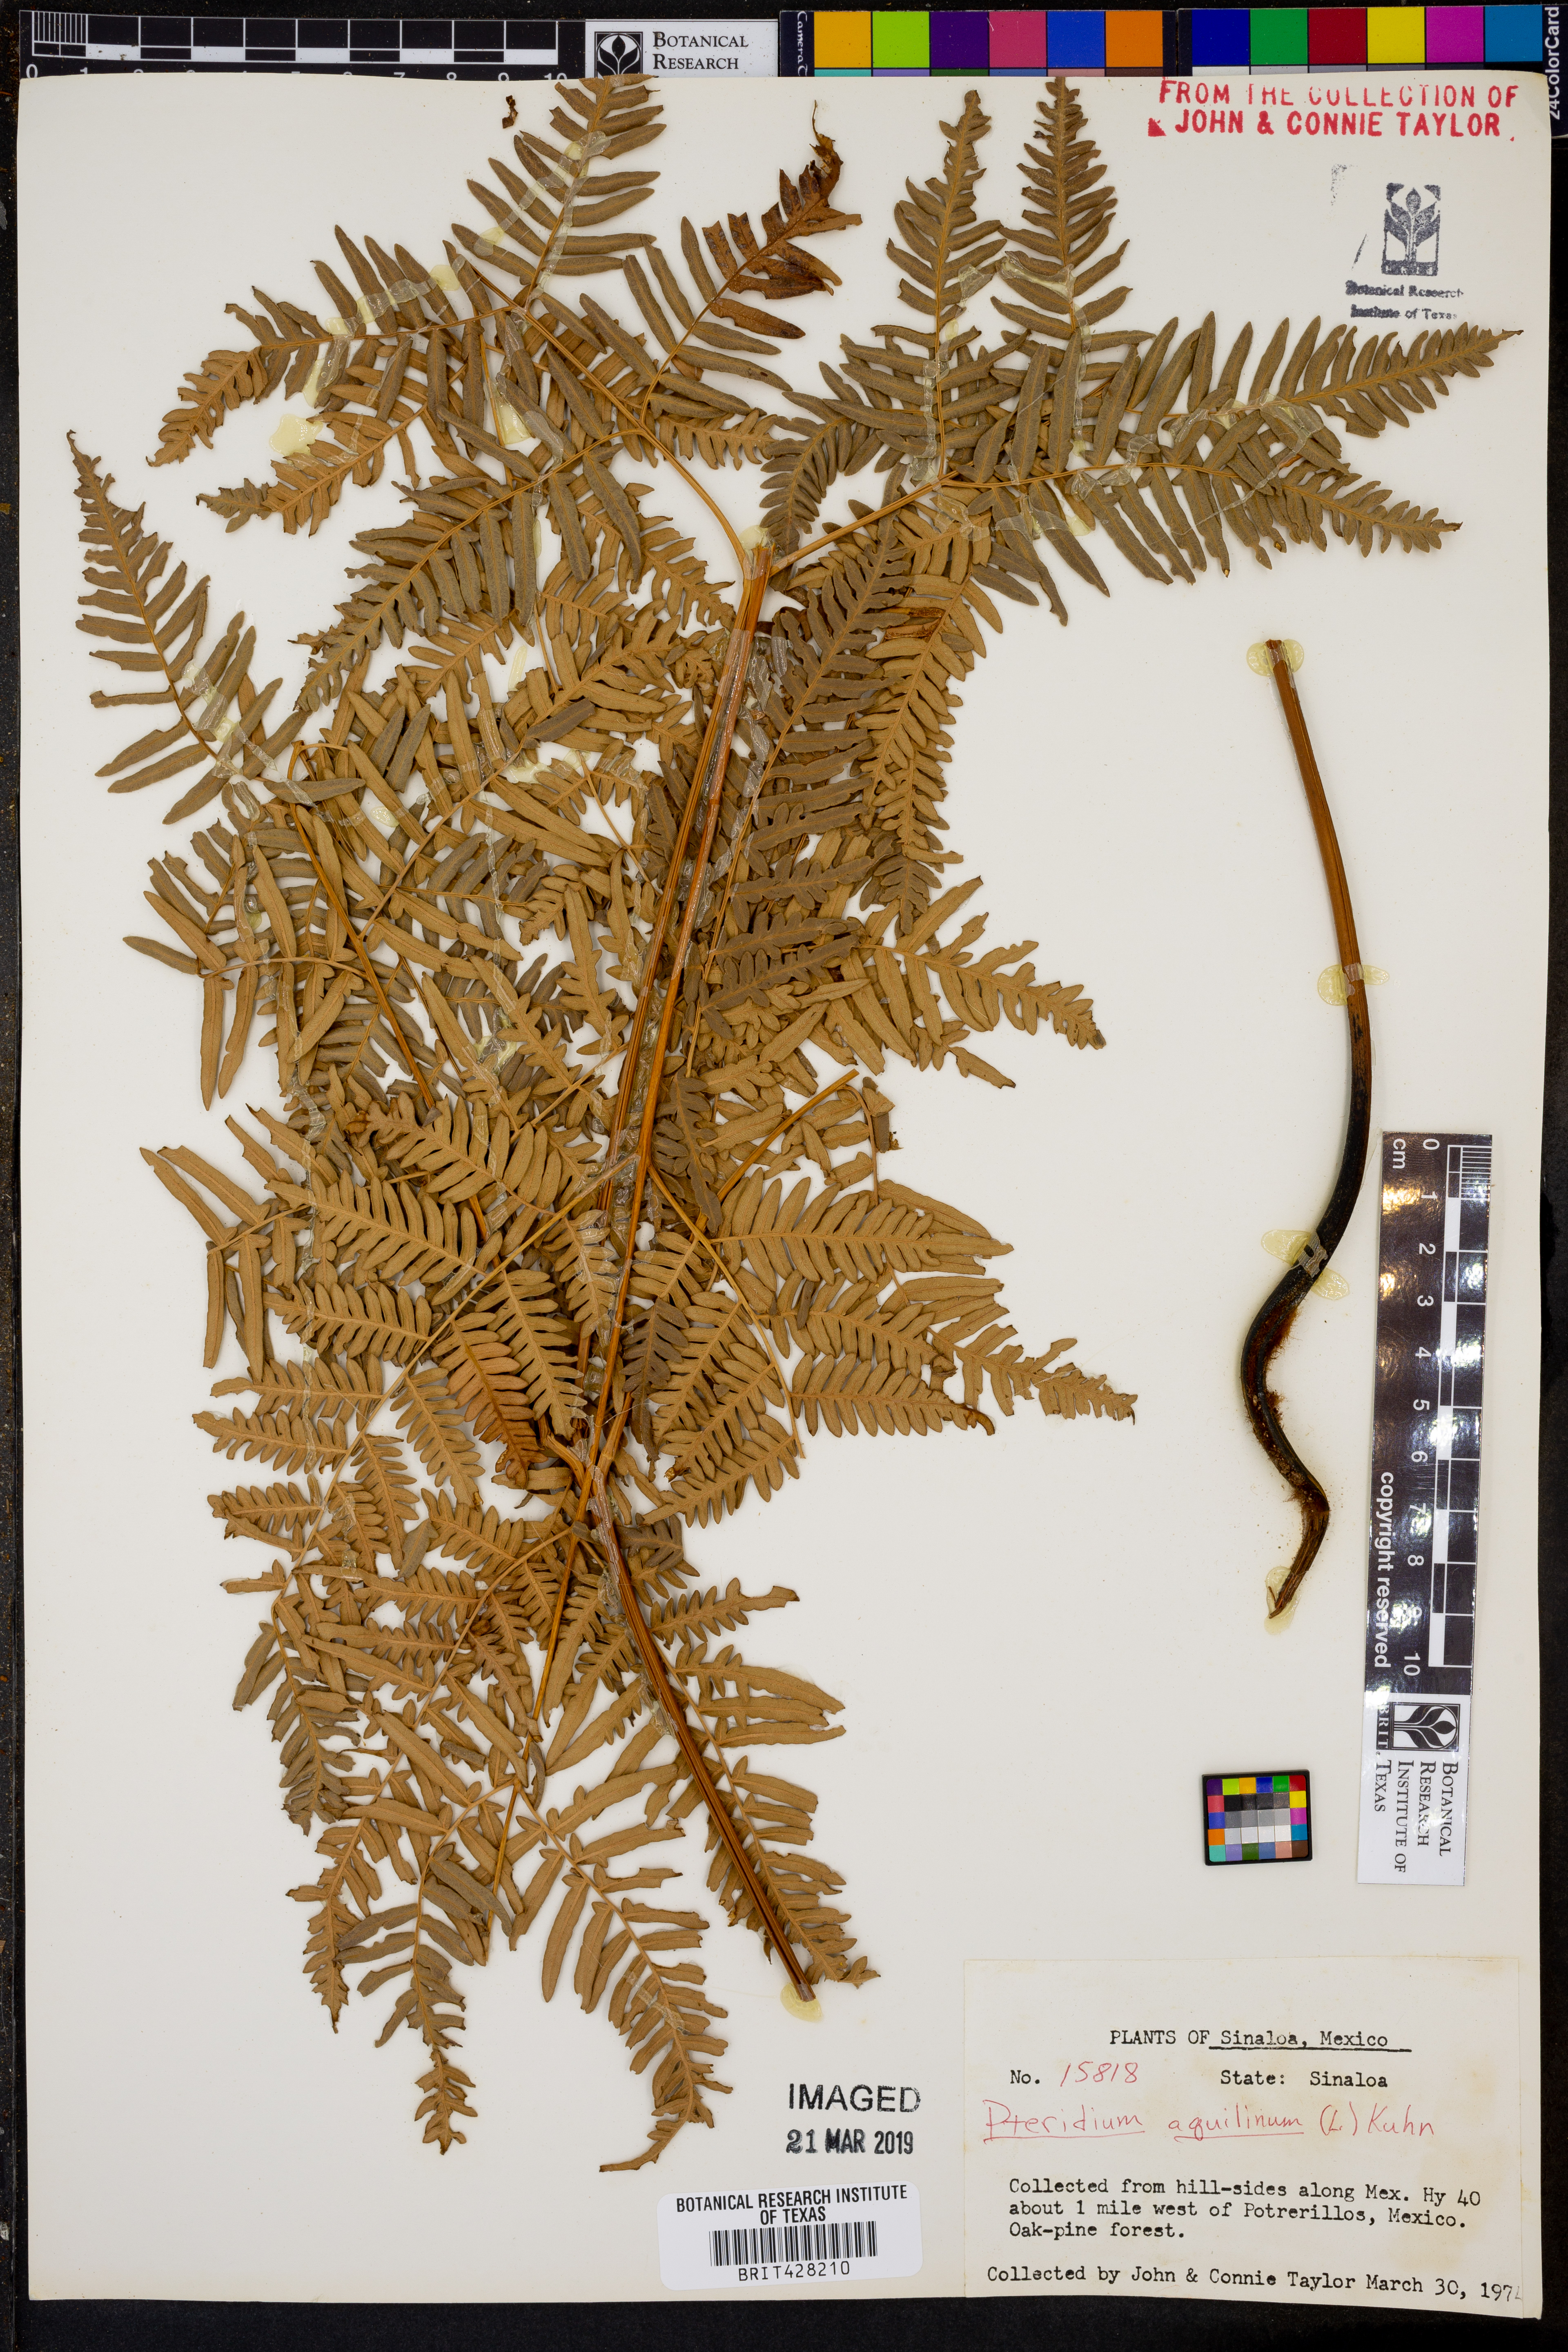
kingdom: Plantae
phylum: Tracheophyta
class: Polypodiopsida
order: Polypodiales
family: Dennstaedtiaceae
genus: Pteridium
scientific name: Pteridium aquilinum
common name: Bracken
